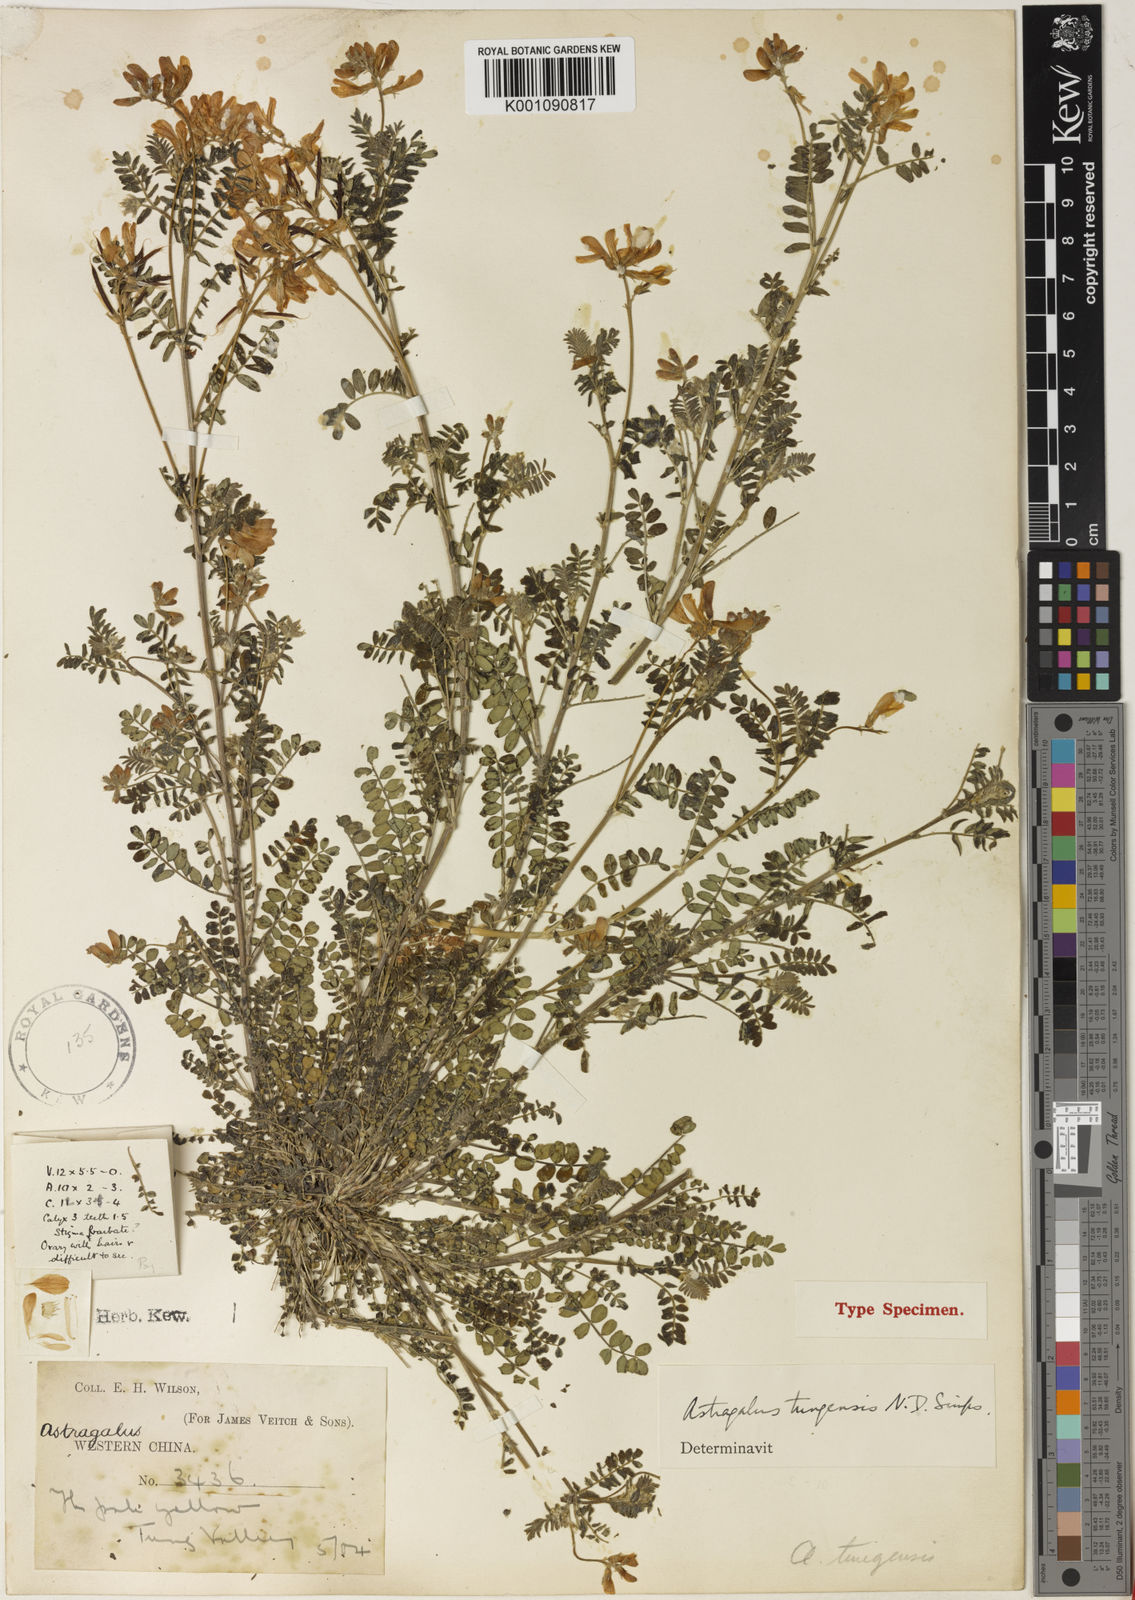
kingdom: Plantae
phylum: Tracheophyta
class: Magnoliopsida
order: Fabales
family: Fabaceae
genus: Astragalus
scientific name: Astragalus
